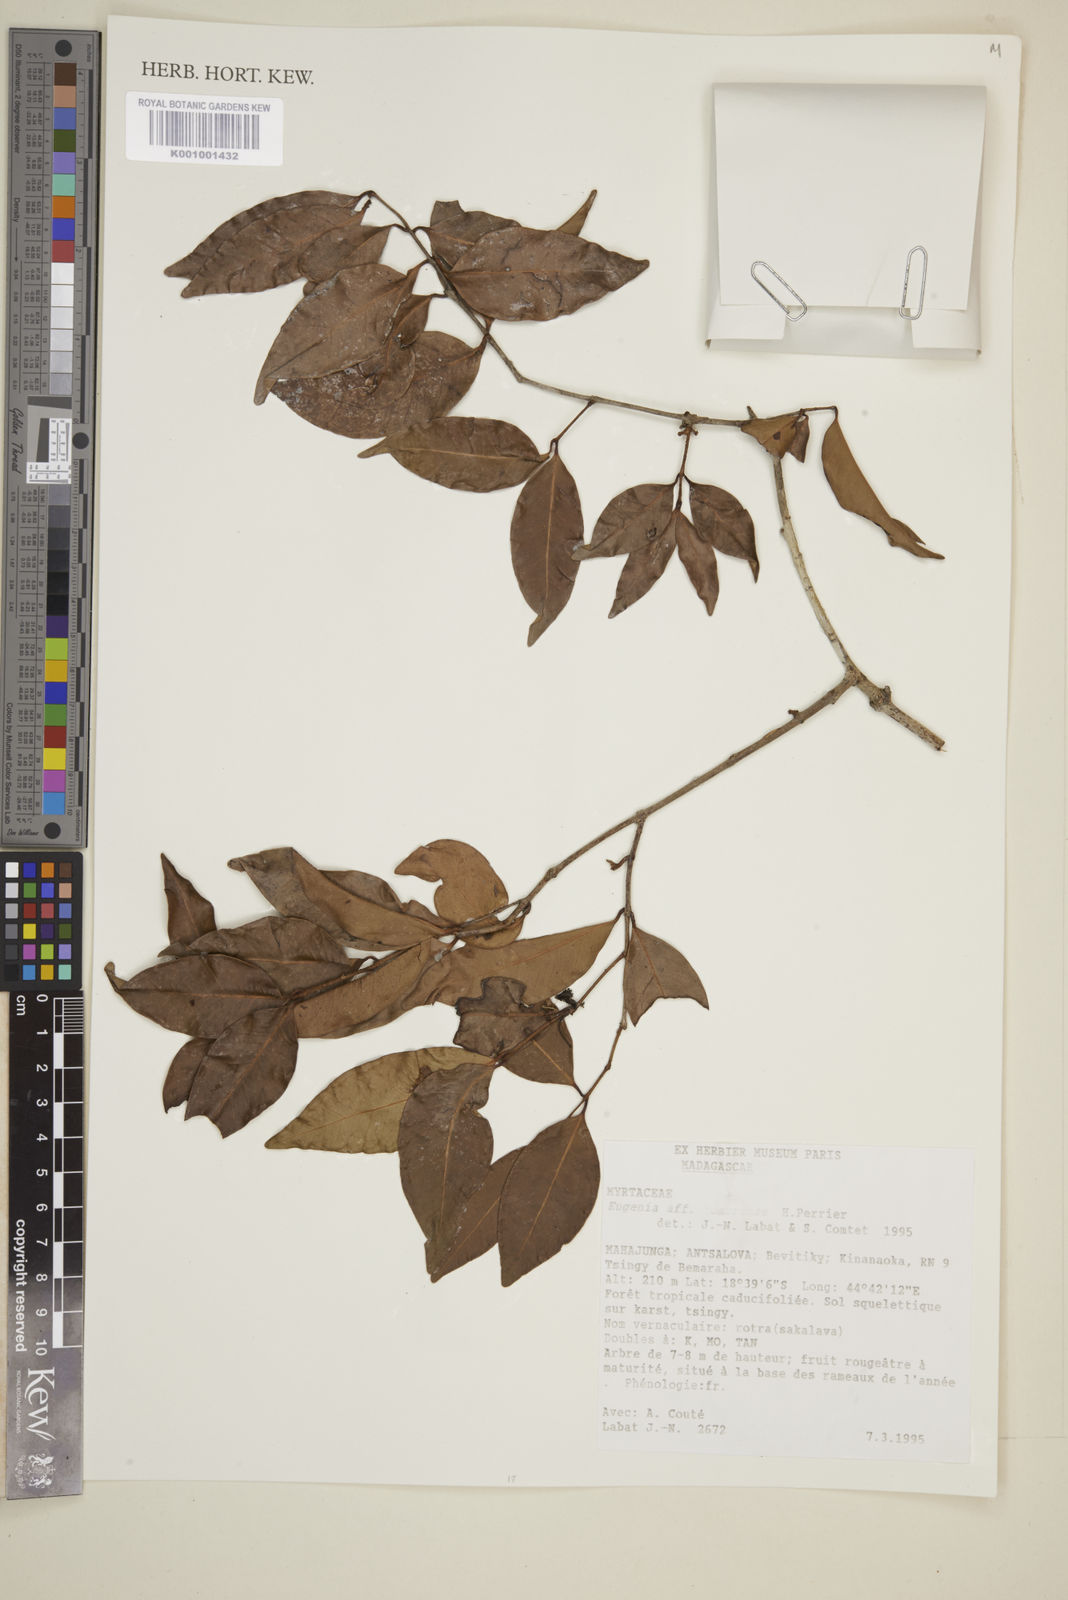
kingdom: Plantae
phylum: Tracheophyta
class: Magnoliopsida
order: Myrtales
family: Myrtaceae
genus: Eugenia
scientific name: Eugenia comorensis
